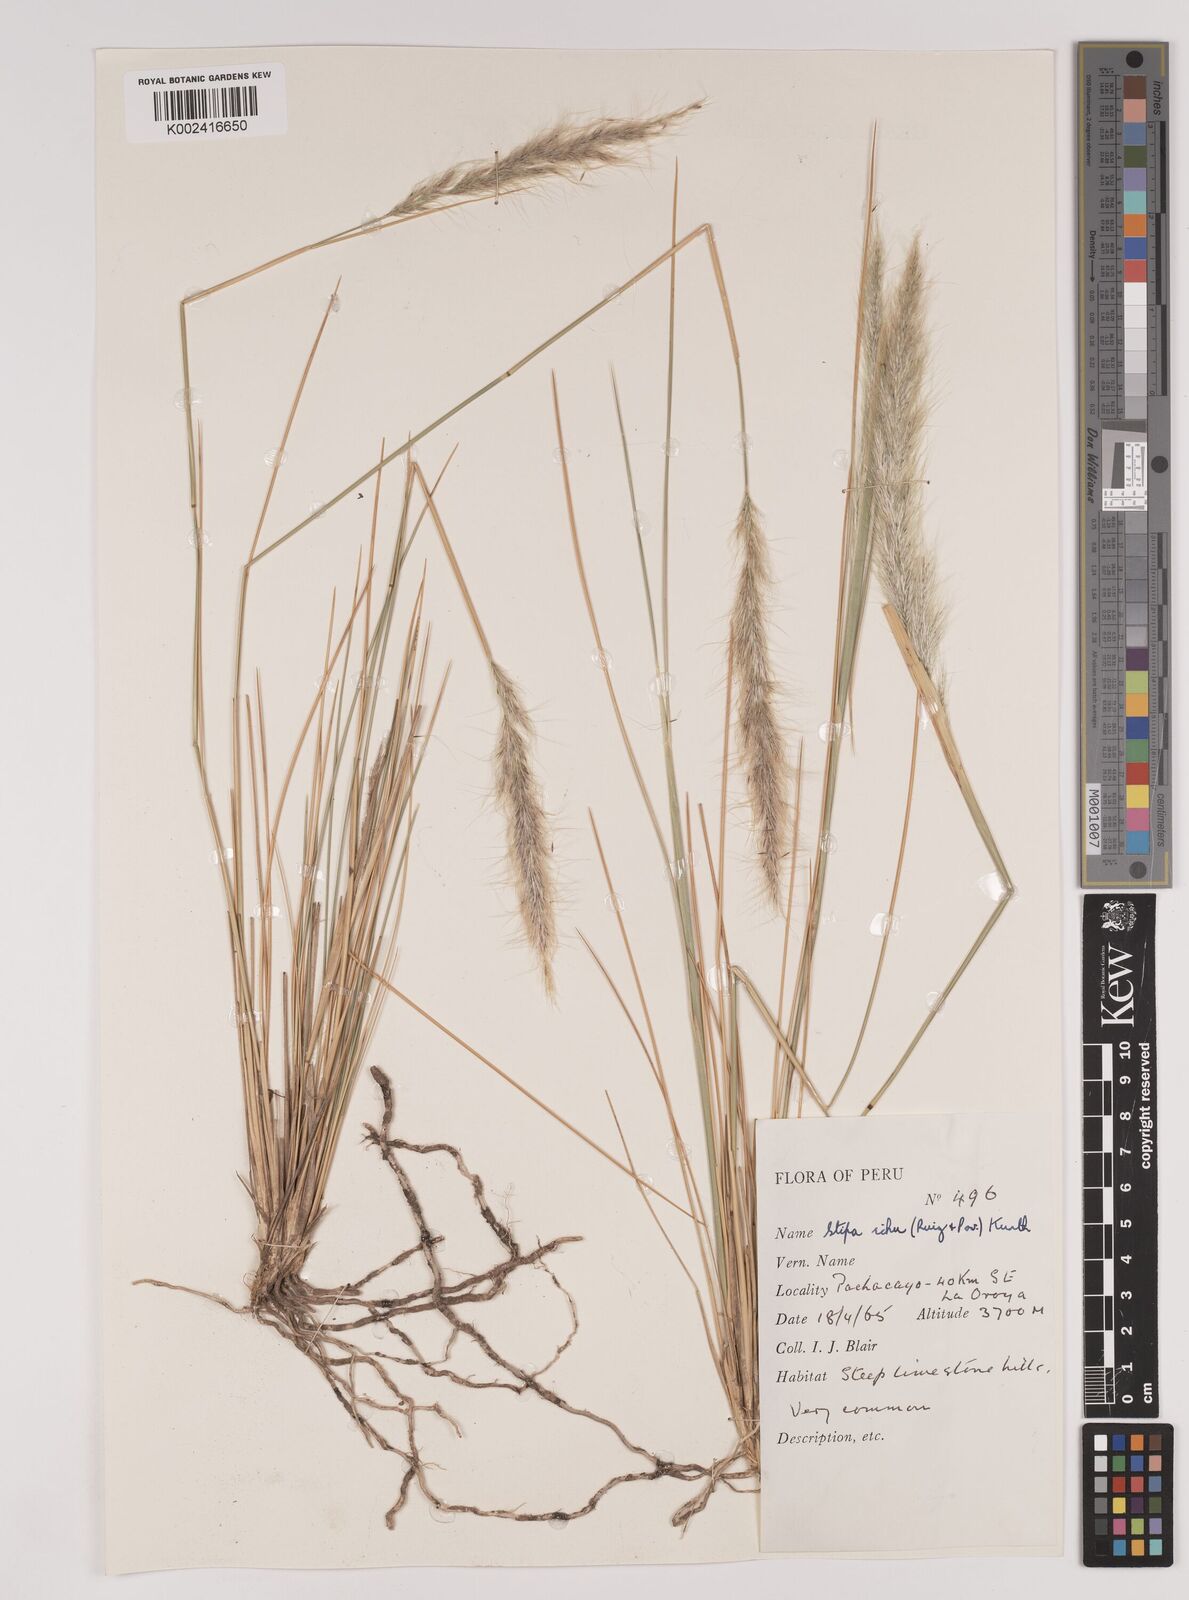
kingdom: Plantae
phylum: Tracheophyta
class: Liliopsida
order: Poales
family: Poaceae
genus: Stipa
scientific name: Stipa pungens
